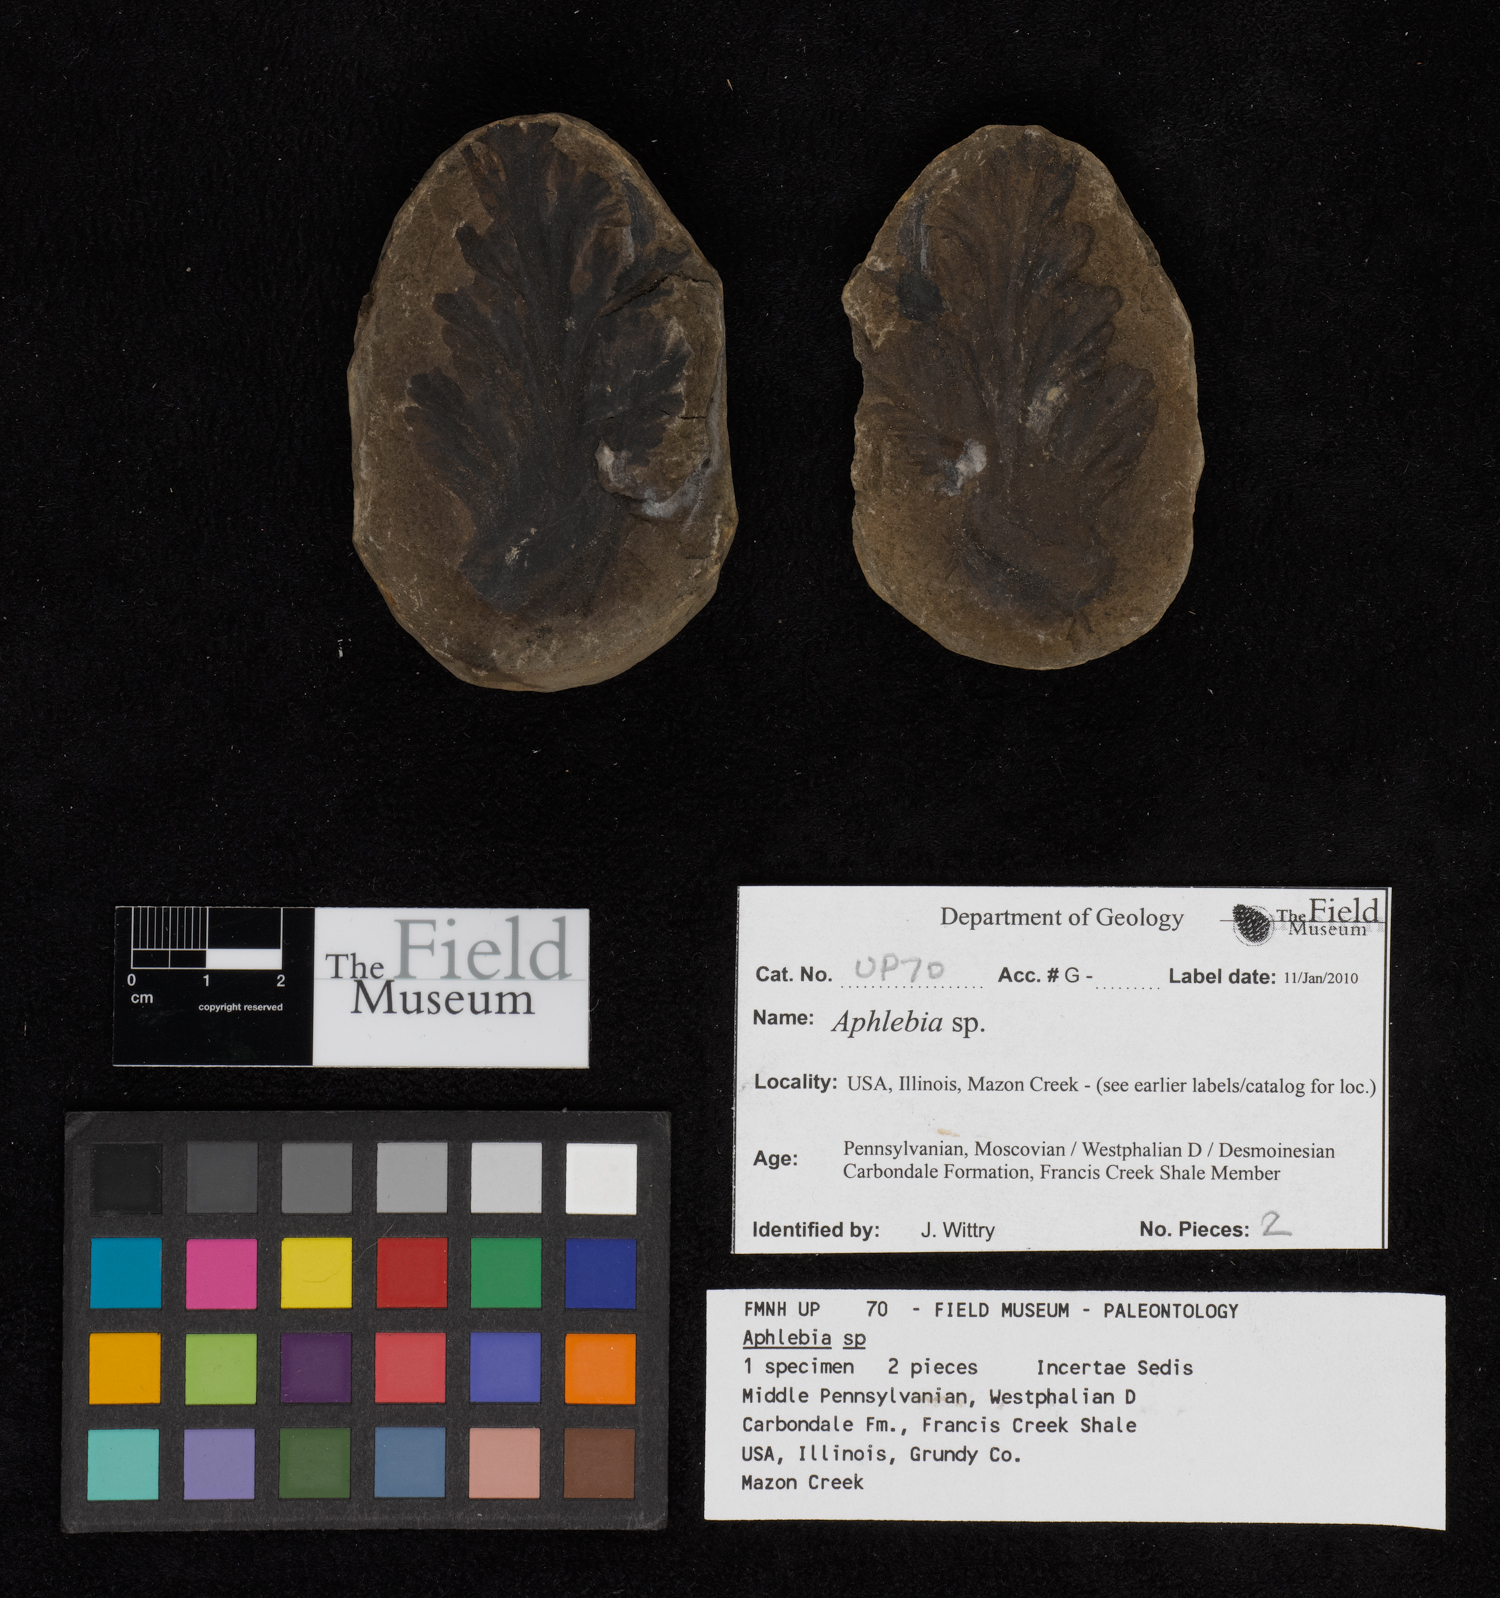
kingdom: Plantae
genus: Rhacophyllum
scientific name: Rhacophyllum
